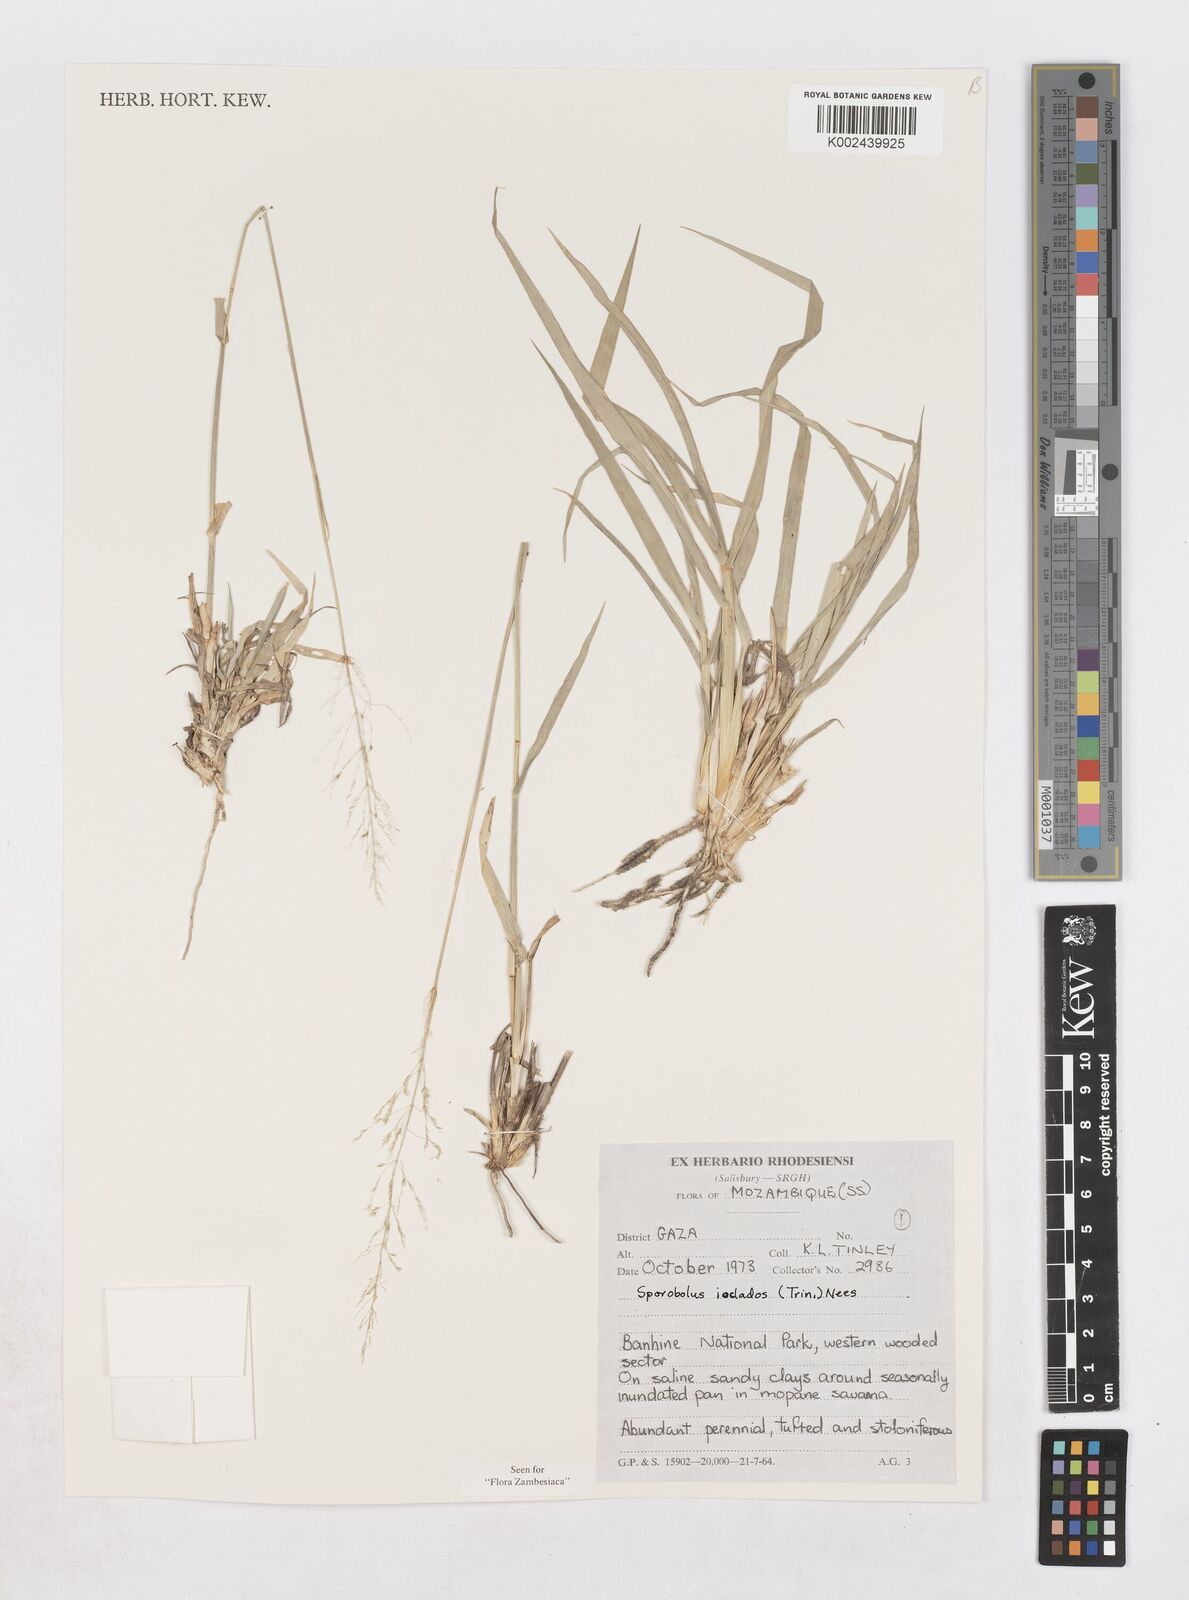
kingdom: Plantae
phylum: Tracheophyta
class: Liliopsida
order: Poales
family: Poaceae
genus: Sporobolus
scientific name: Sporobolus ioclados
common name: Pan dropseed
